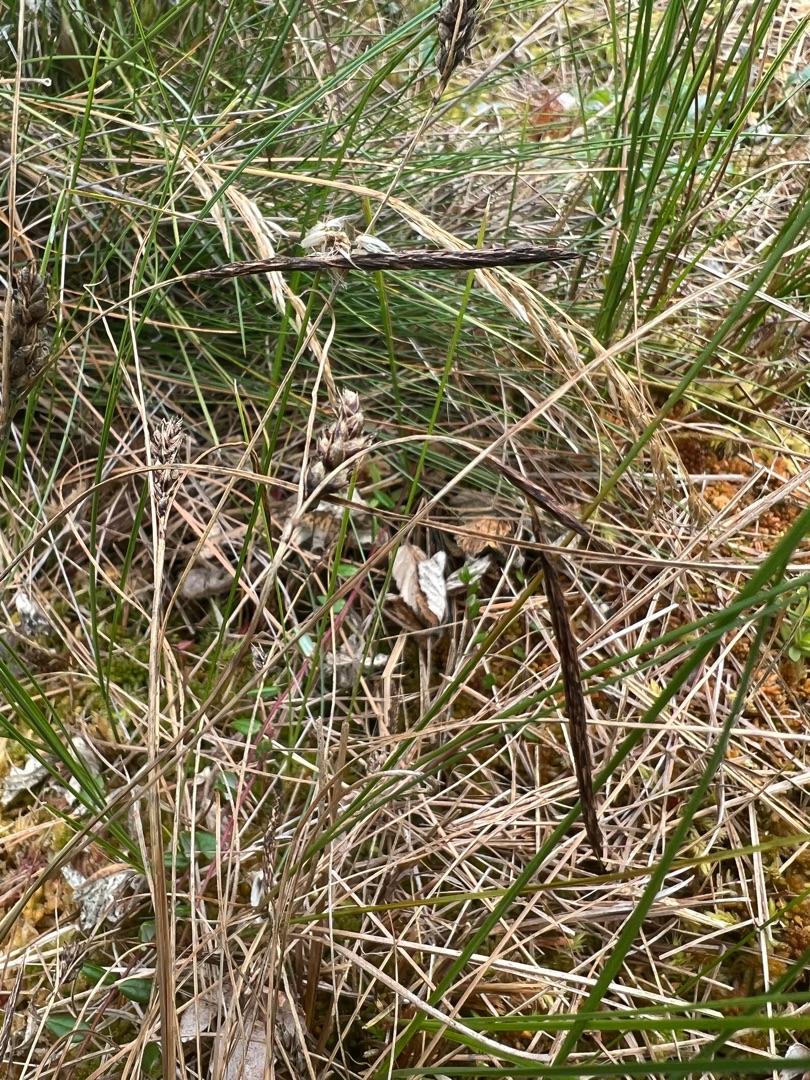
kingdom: Plantae
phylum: Tracheophyta
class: Liliopsida
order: Poales
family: Cyperaceae
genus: Carex
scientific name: Carex lasiocarpa
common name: Tråd-star
